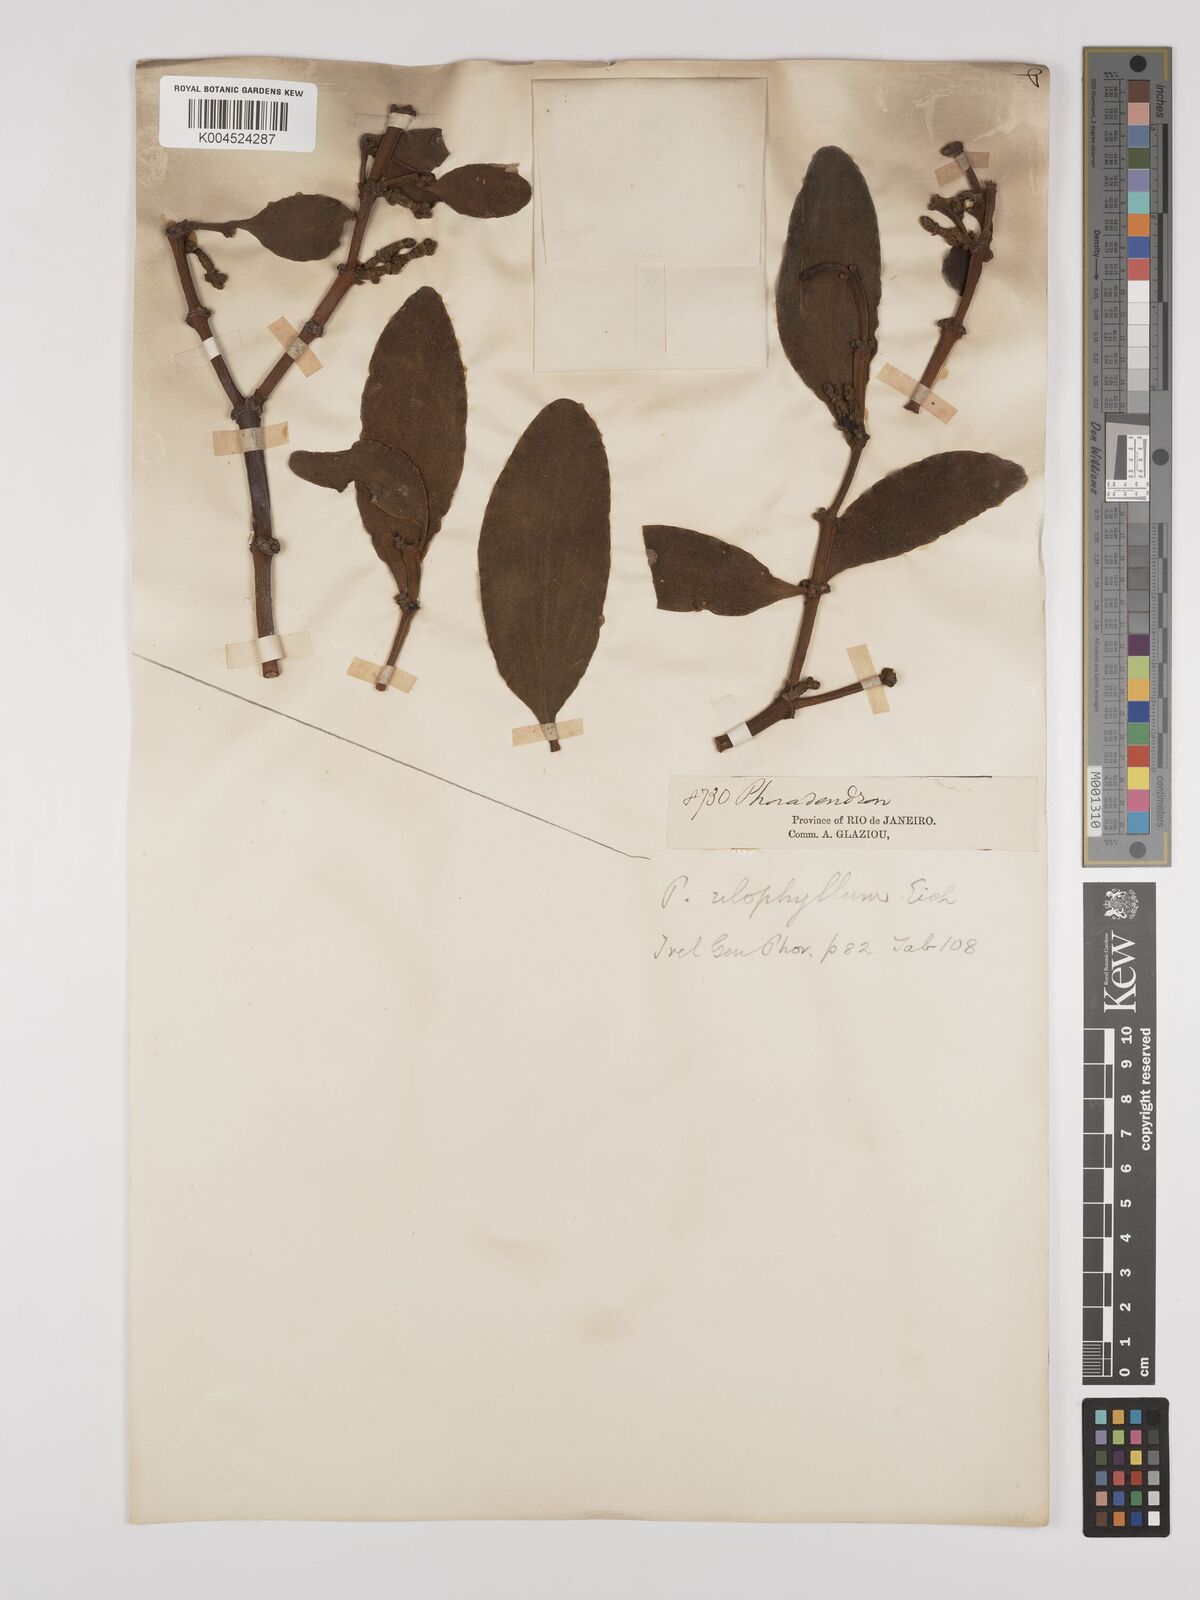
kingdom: Plantae
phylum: Tracheophyta
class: Magnoliopsida
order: Santalales
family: Viscaceae
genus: Phoradendron
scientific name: Phoradendron bathyoryctum
